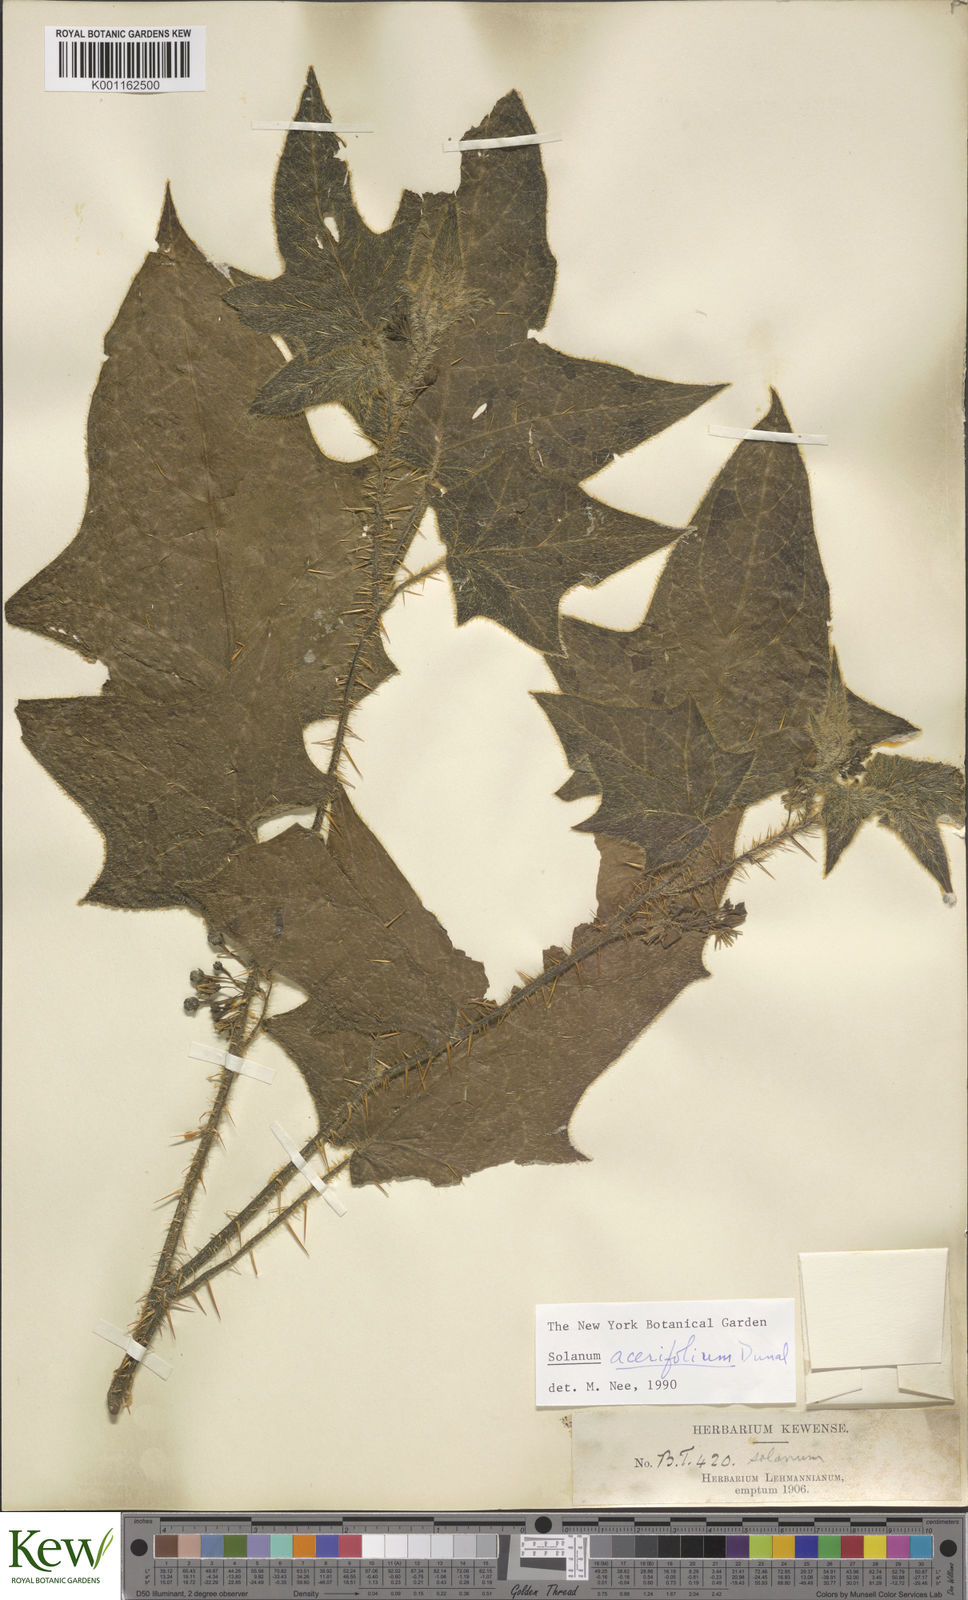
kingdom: Plantae
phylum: Tracheophyta
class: Magnoliopsida
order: Solanales
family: Solanaceae
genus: Solanum
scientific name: Solanum acerifolium
